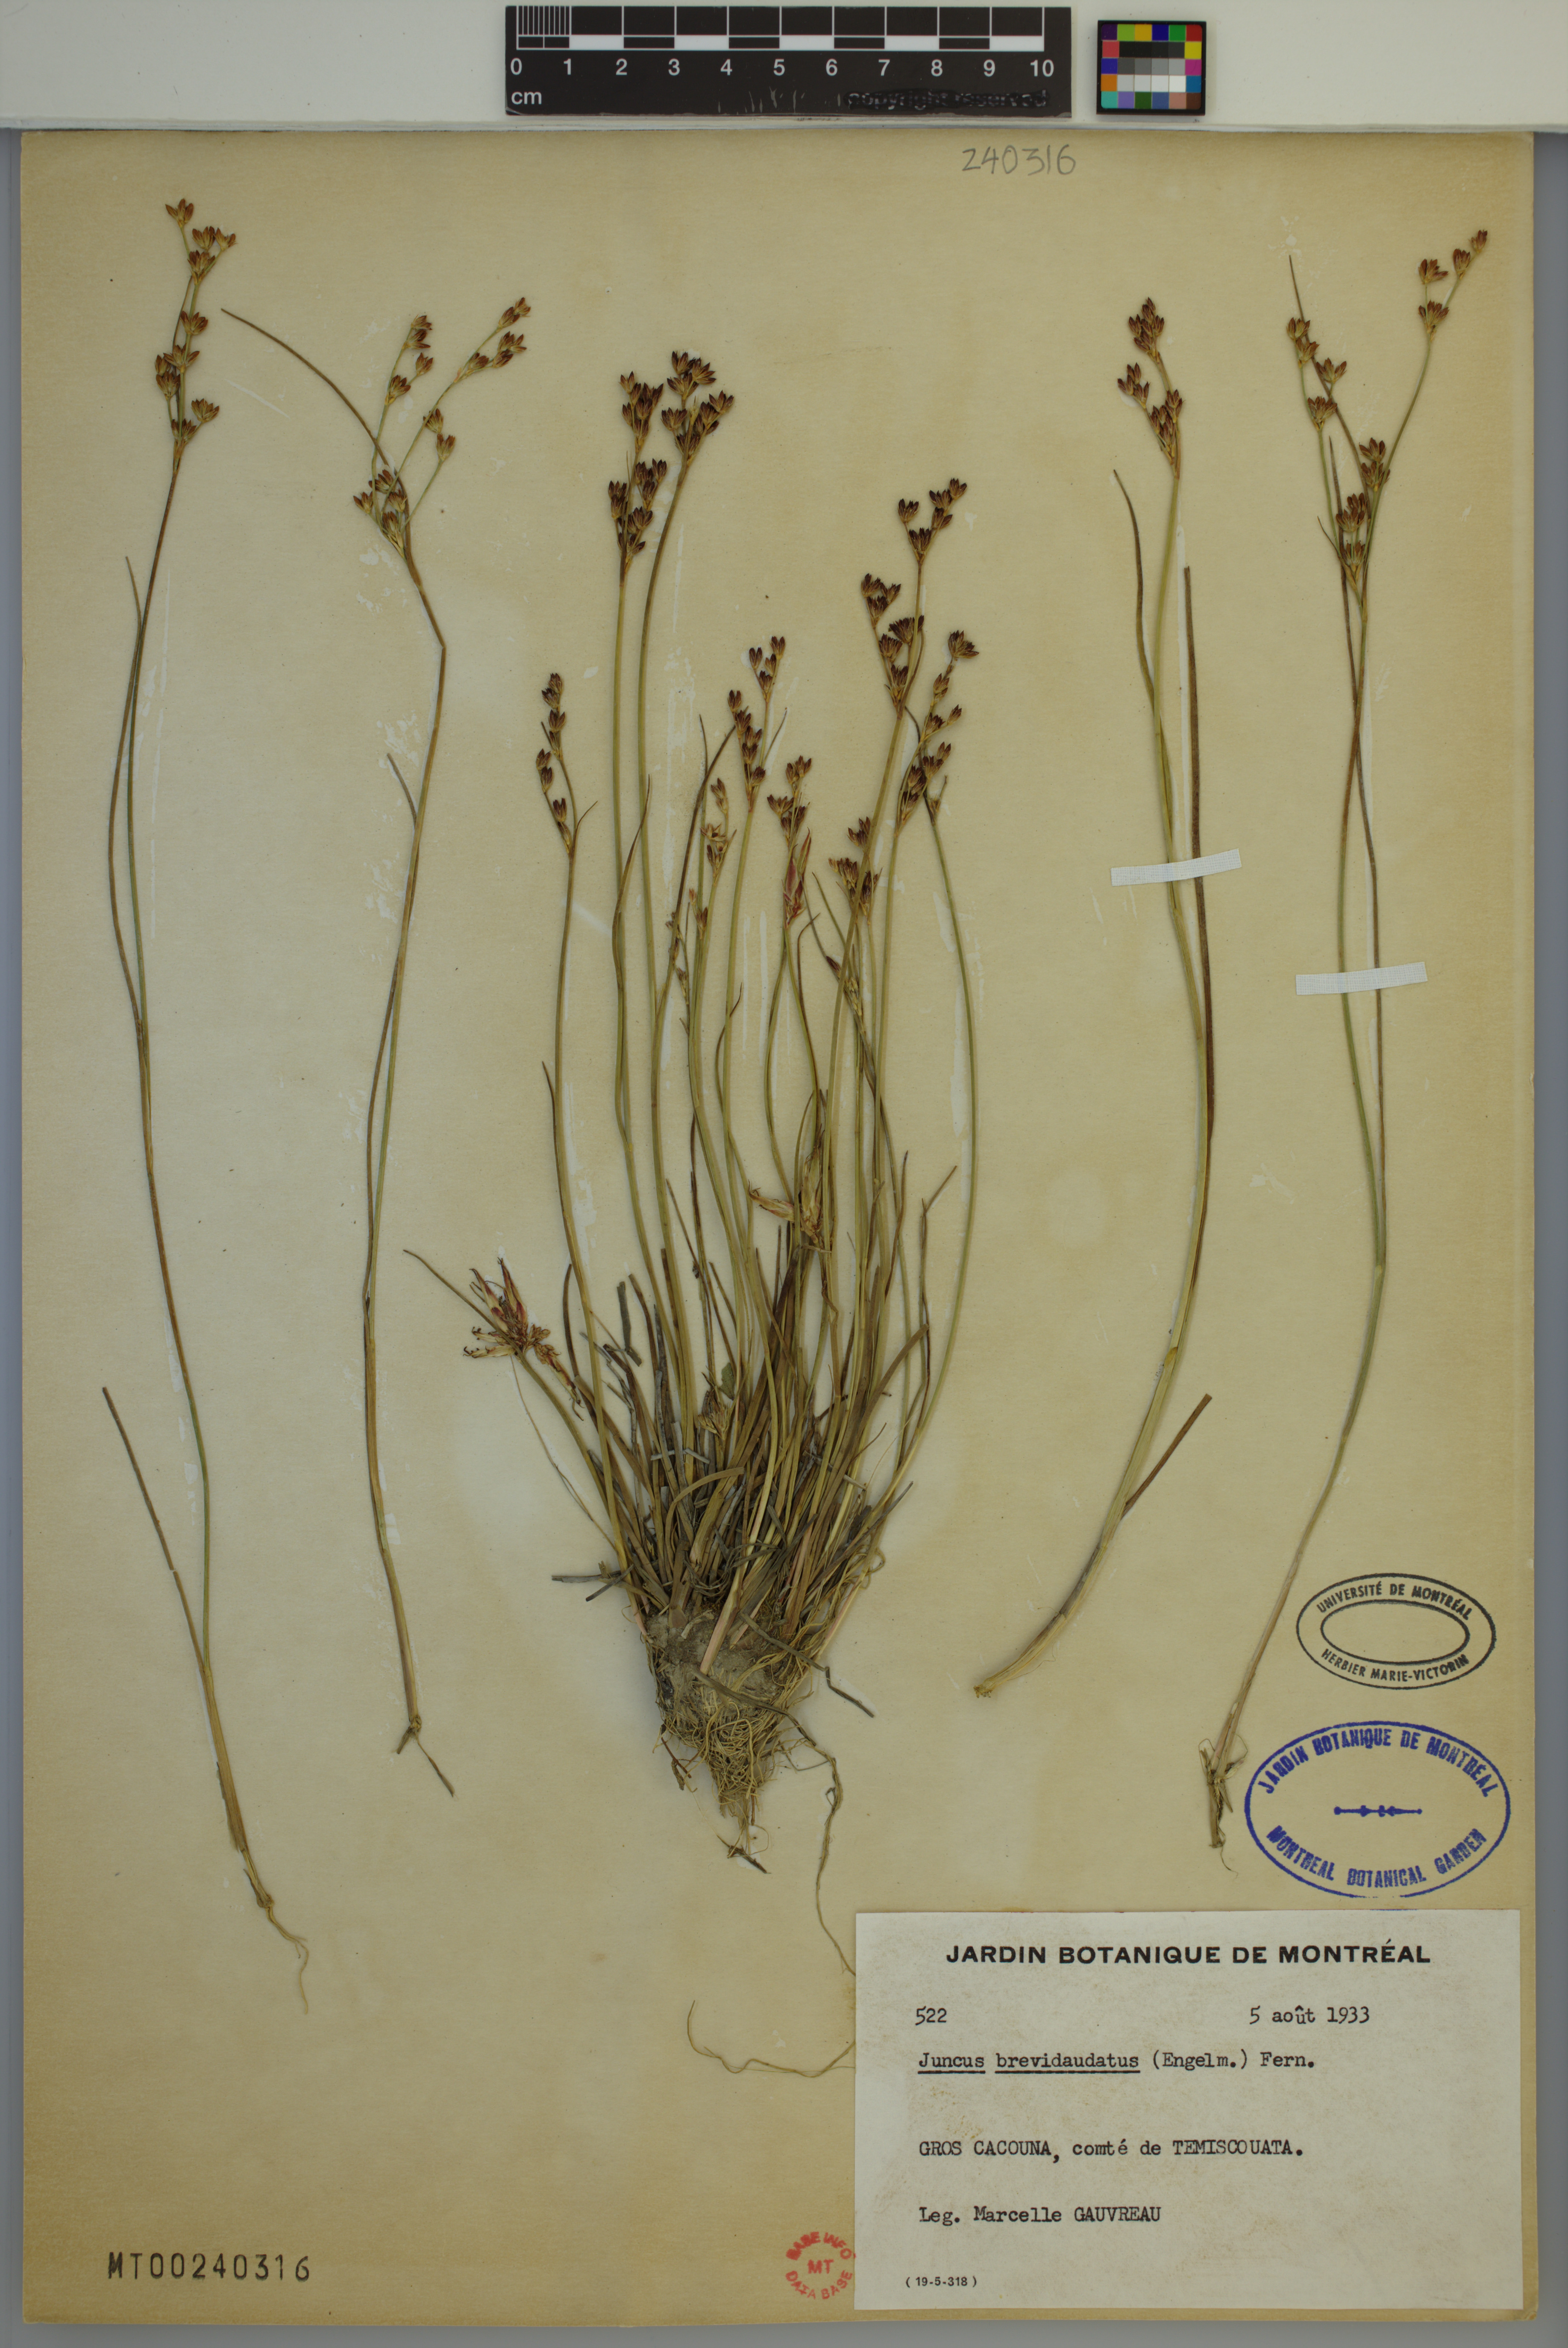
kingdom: Plantae
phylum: Tracheophyta
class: Liliopsida
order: Poales
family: Juncaceae
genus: Juncus
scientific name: Juncus brevicaudatus
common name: Narrow-panicle rush
